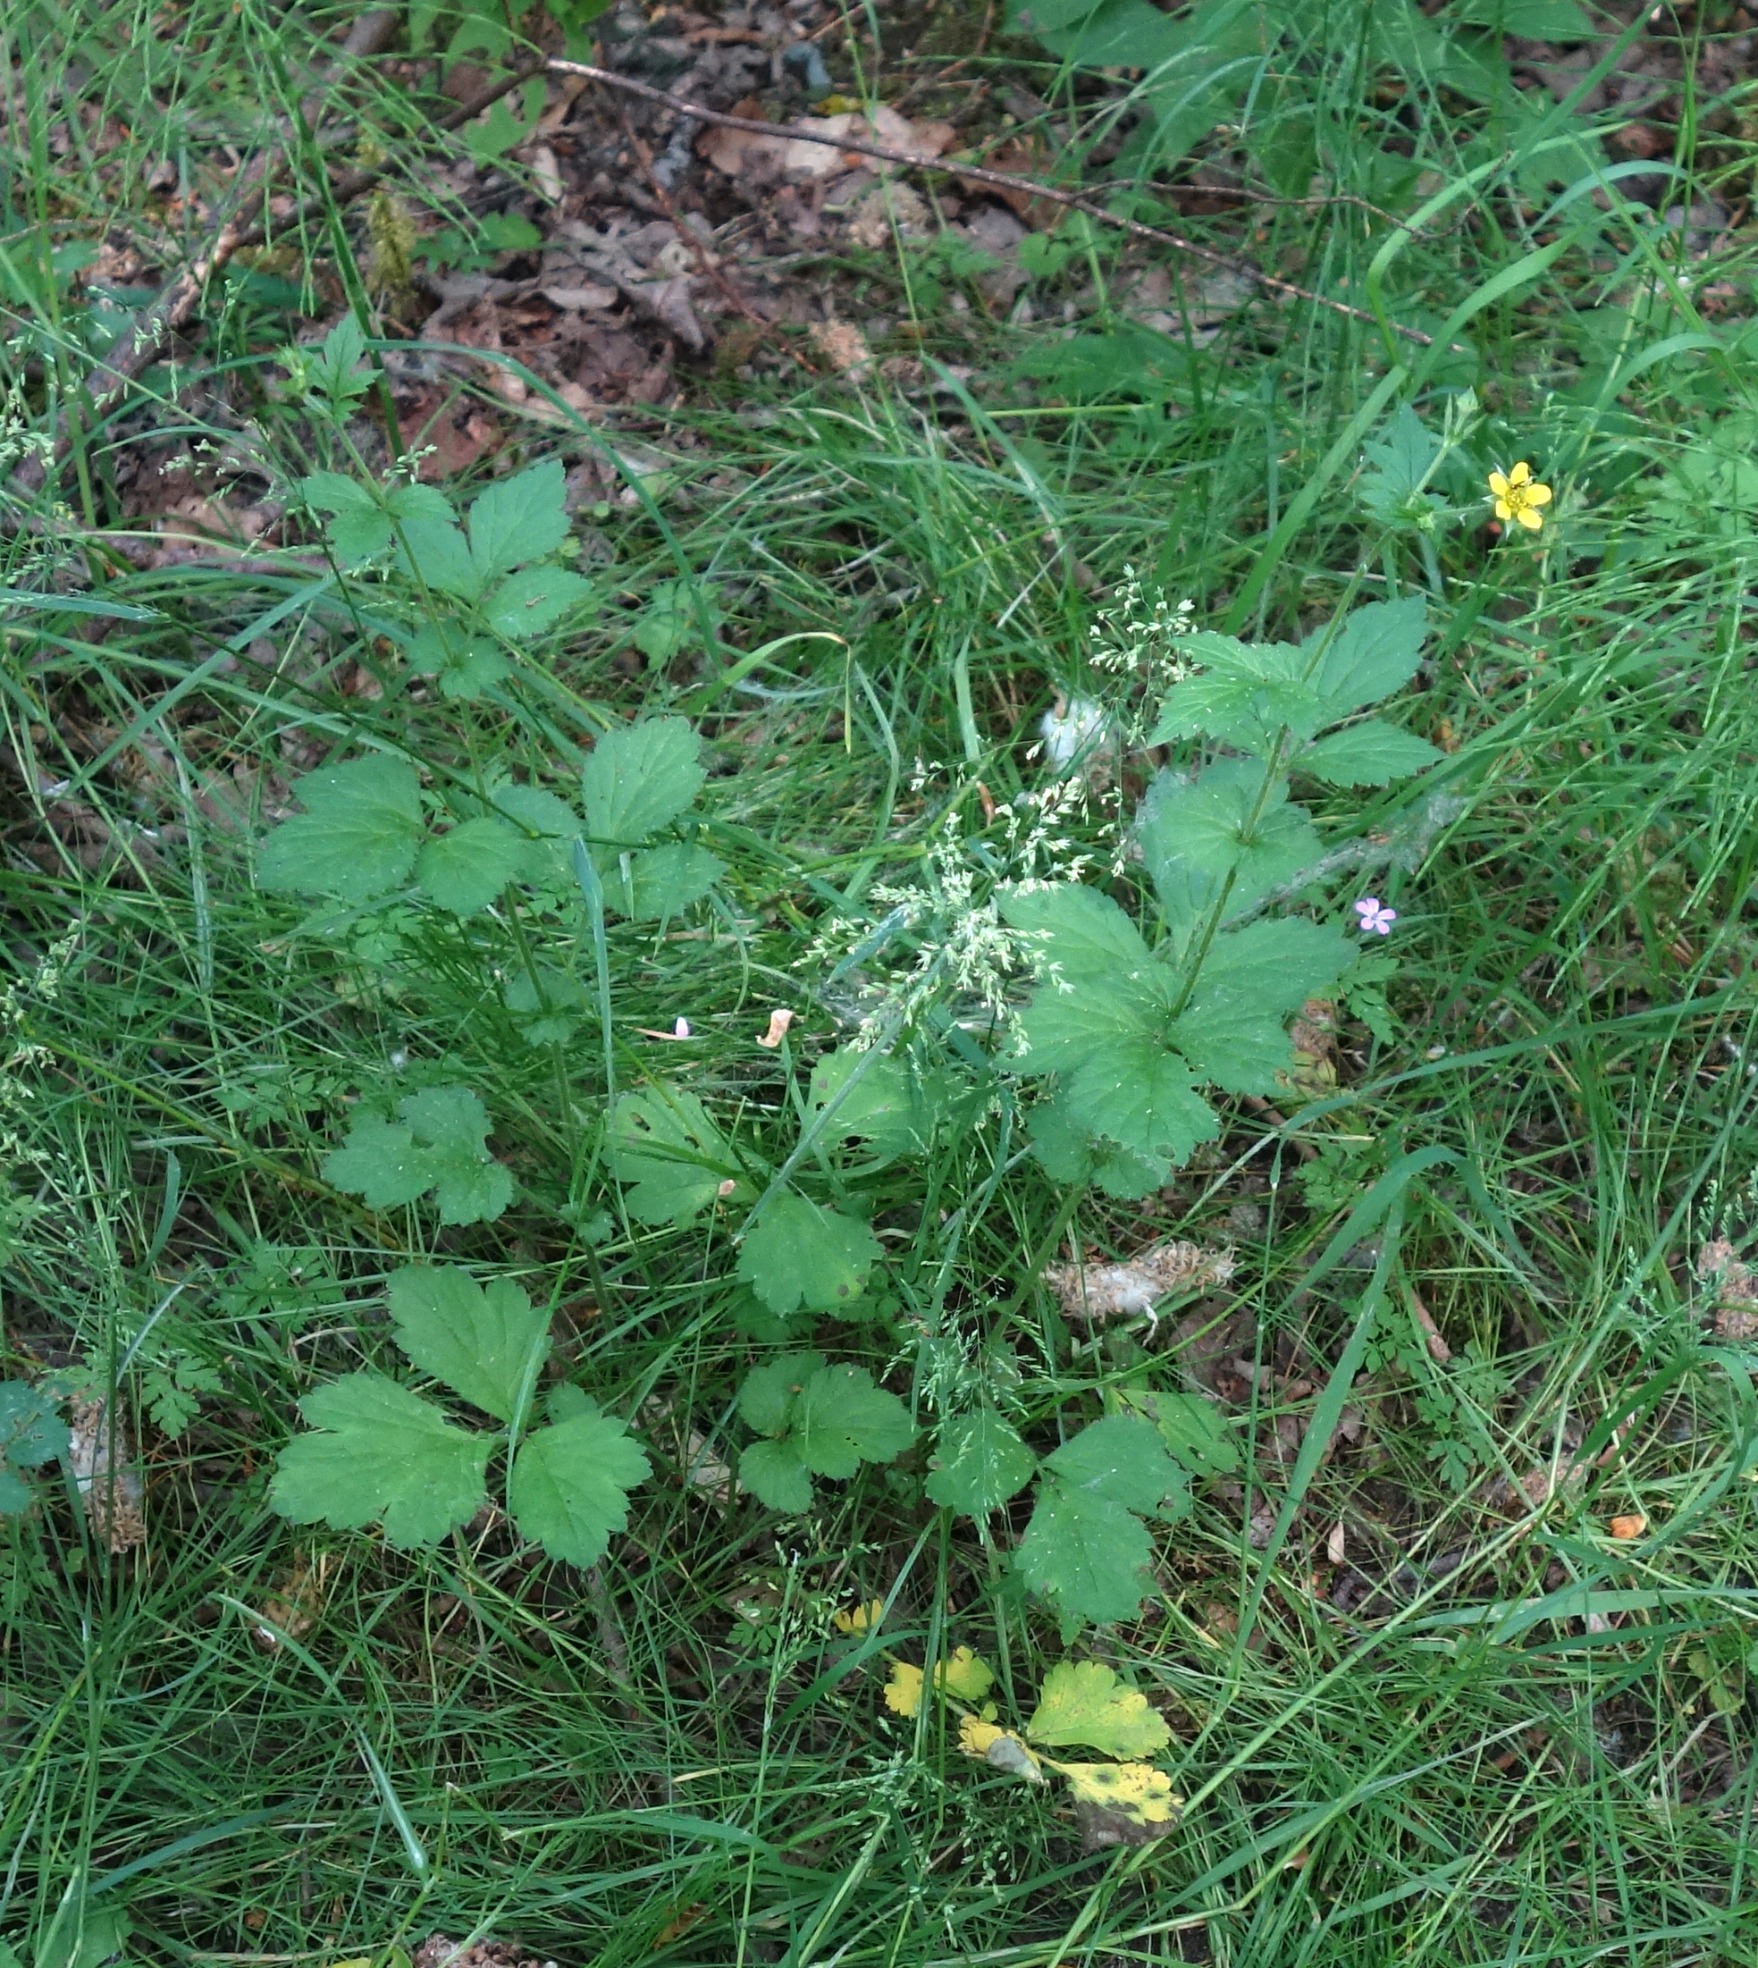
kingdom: Plantae
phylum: Tracheophyta
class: Magnoliopsida
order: Rosales
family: Rosaceae
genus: Geum
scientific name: Geum urbanum
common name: Feber-nellikerod
